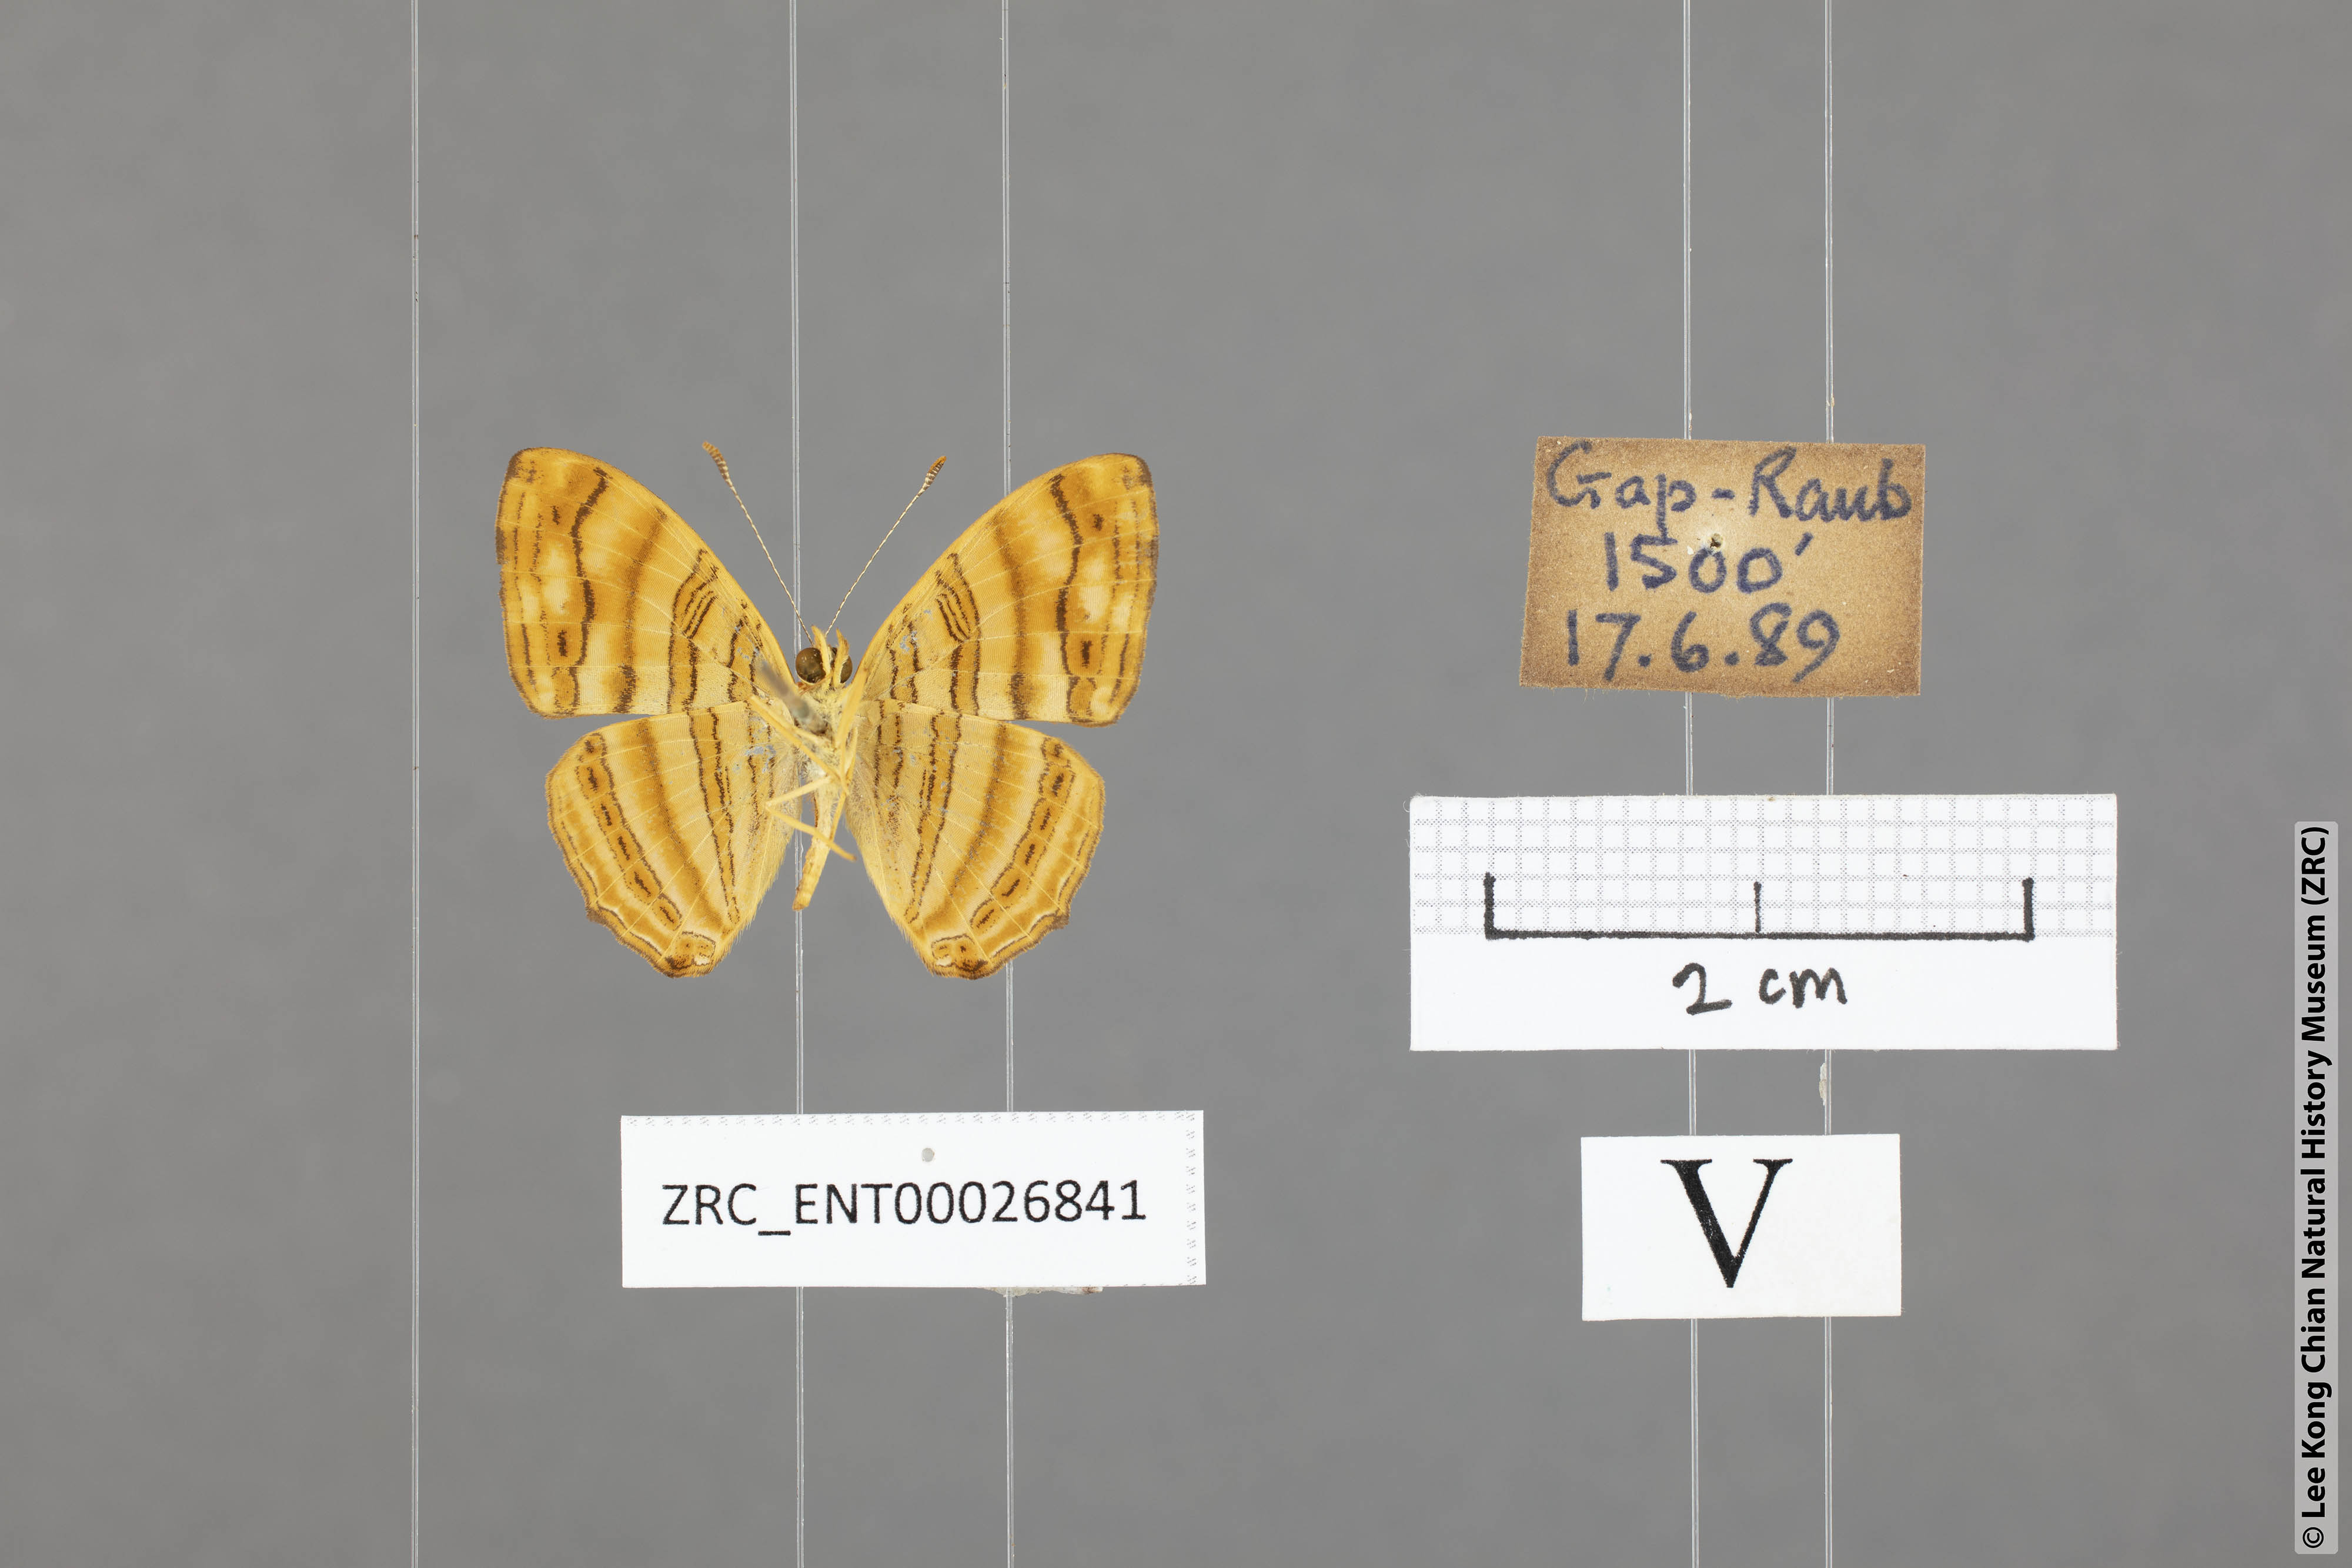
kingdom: Animalia
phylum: Arthropoda
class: Insecta
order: Lepidoptera
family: Nymphalidae
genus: Chersonesia
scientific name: Chersonesia intermedia
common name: Intermediate maplet
